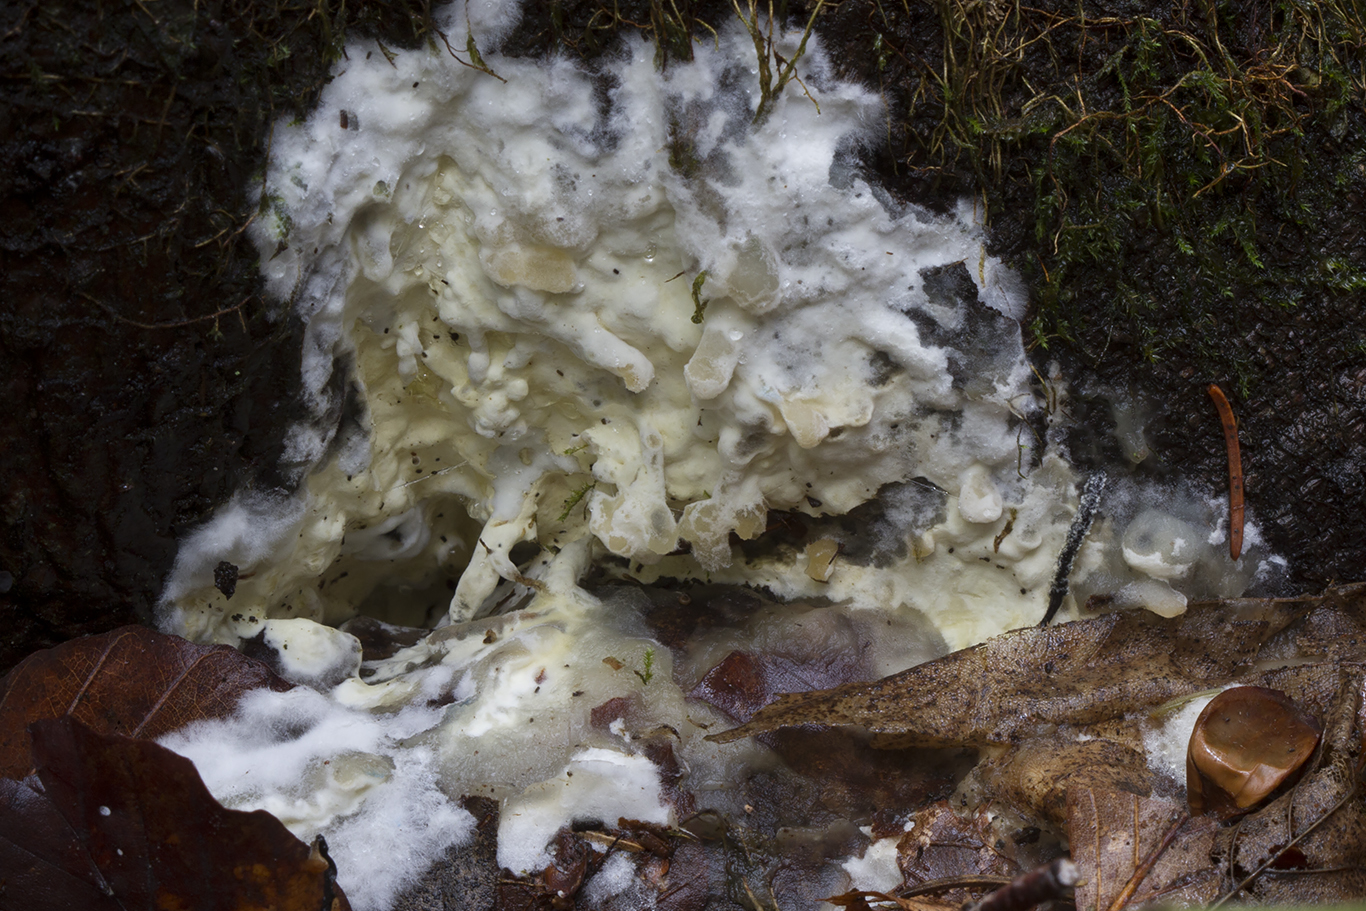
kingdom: Fungi
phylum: Basidiomycota
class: Agaricomycetes
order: Russulales
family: Peniophoraceae
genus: Gloiothele
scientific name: Gloiothele citrina
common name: citronskorpe
